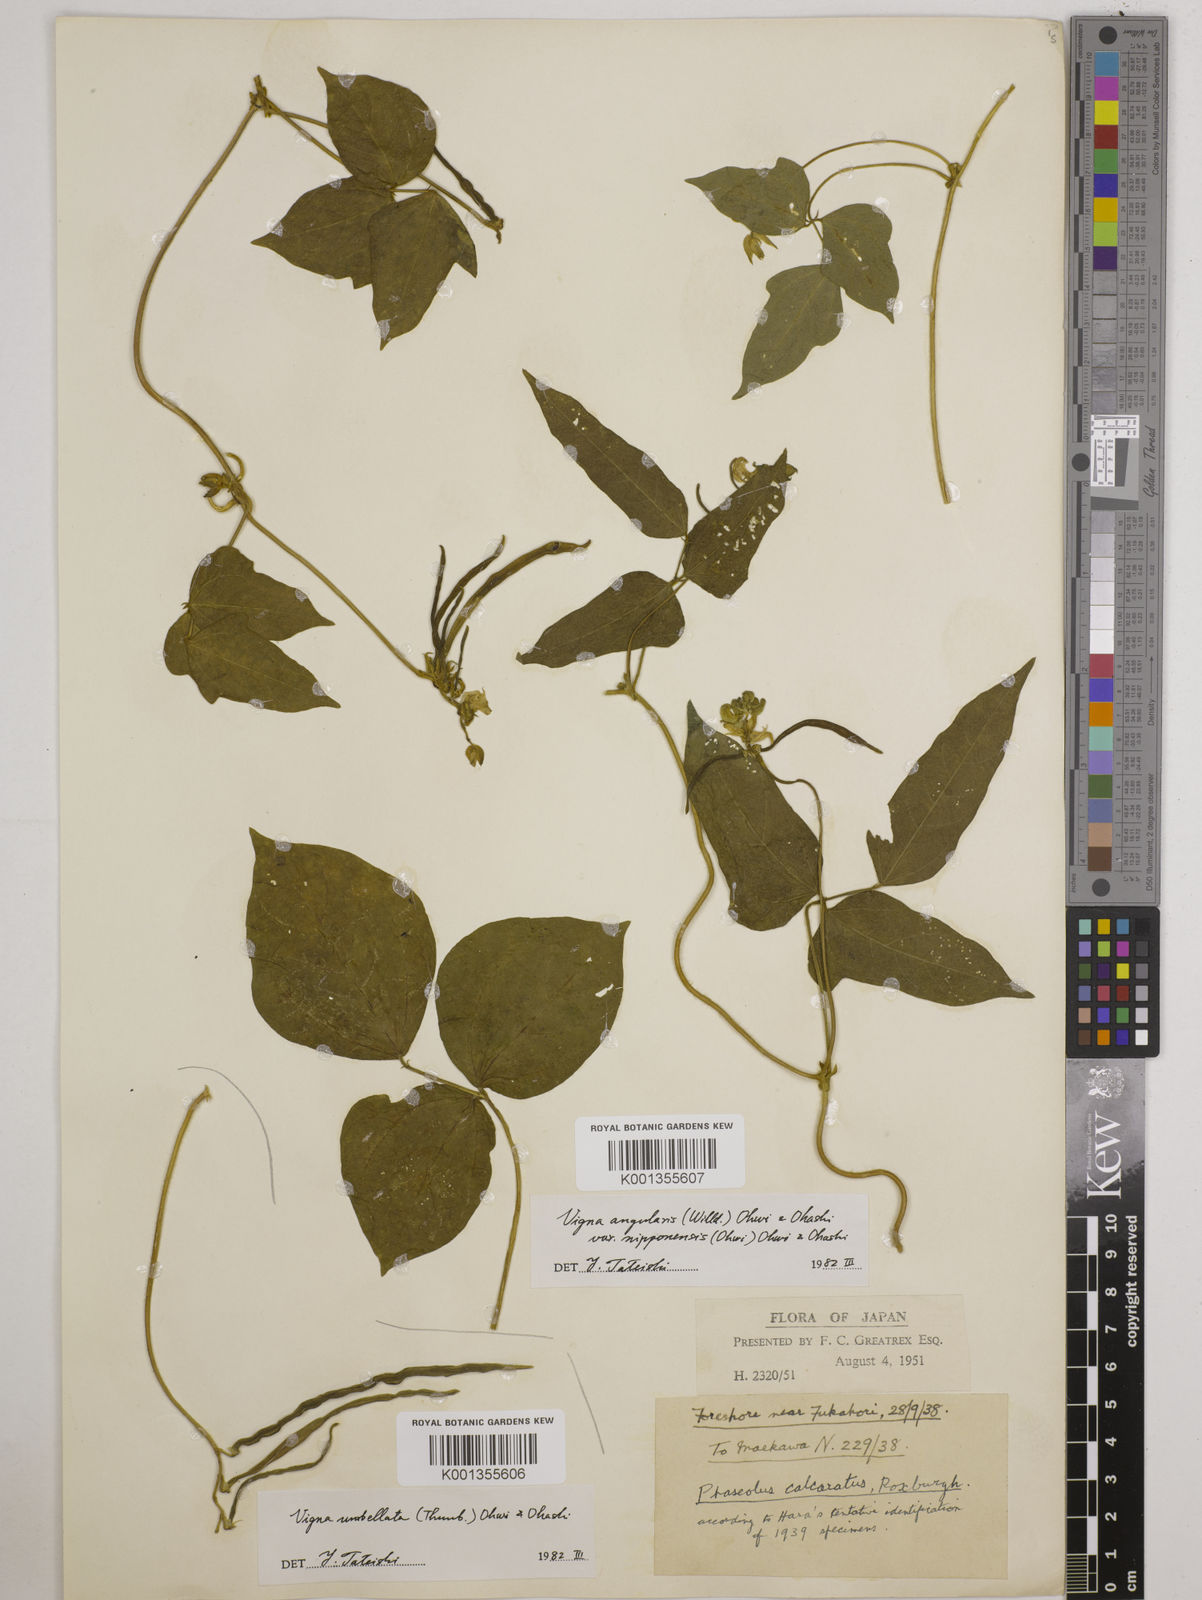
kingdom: Plantae
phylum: Tracheophyta
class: Magnoliopsida
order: Fabales
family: Fabaceae
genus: Vigna
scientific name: Vigna umbellata
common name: Oriental-bean
